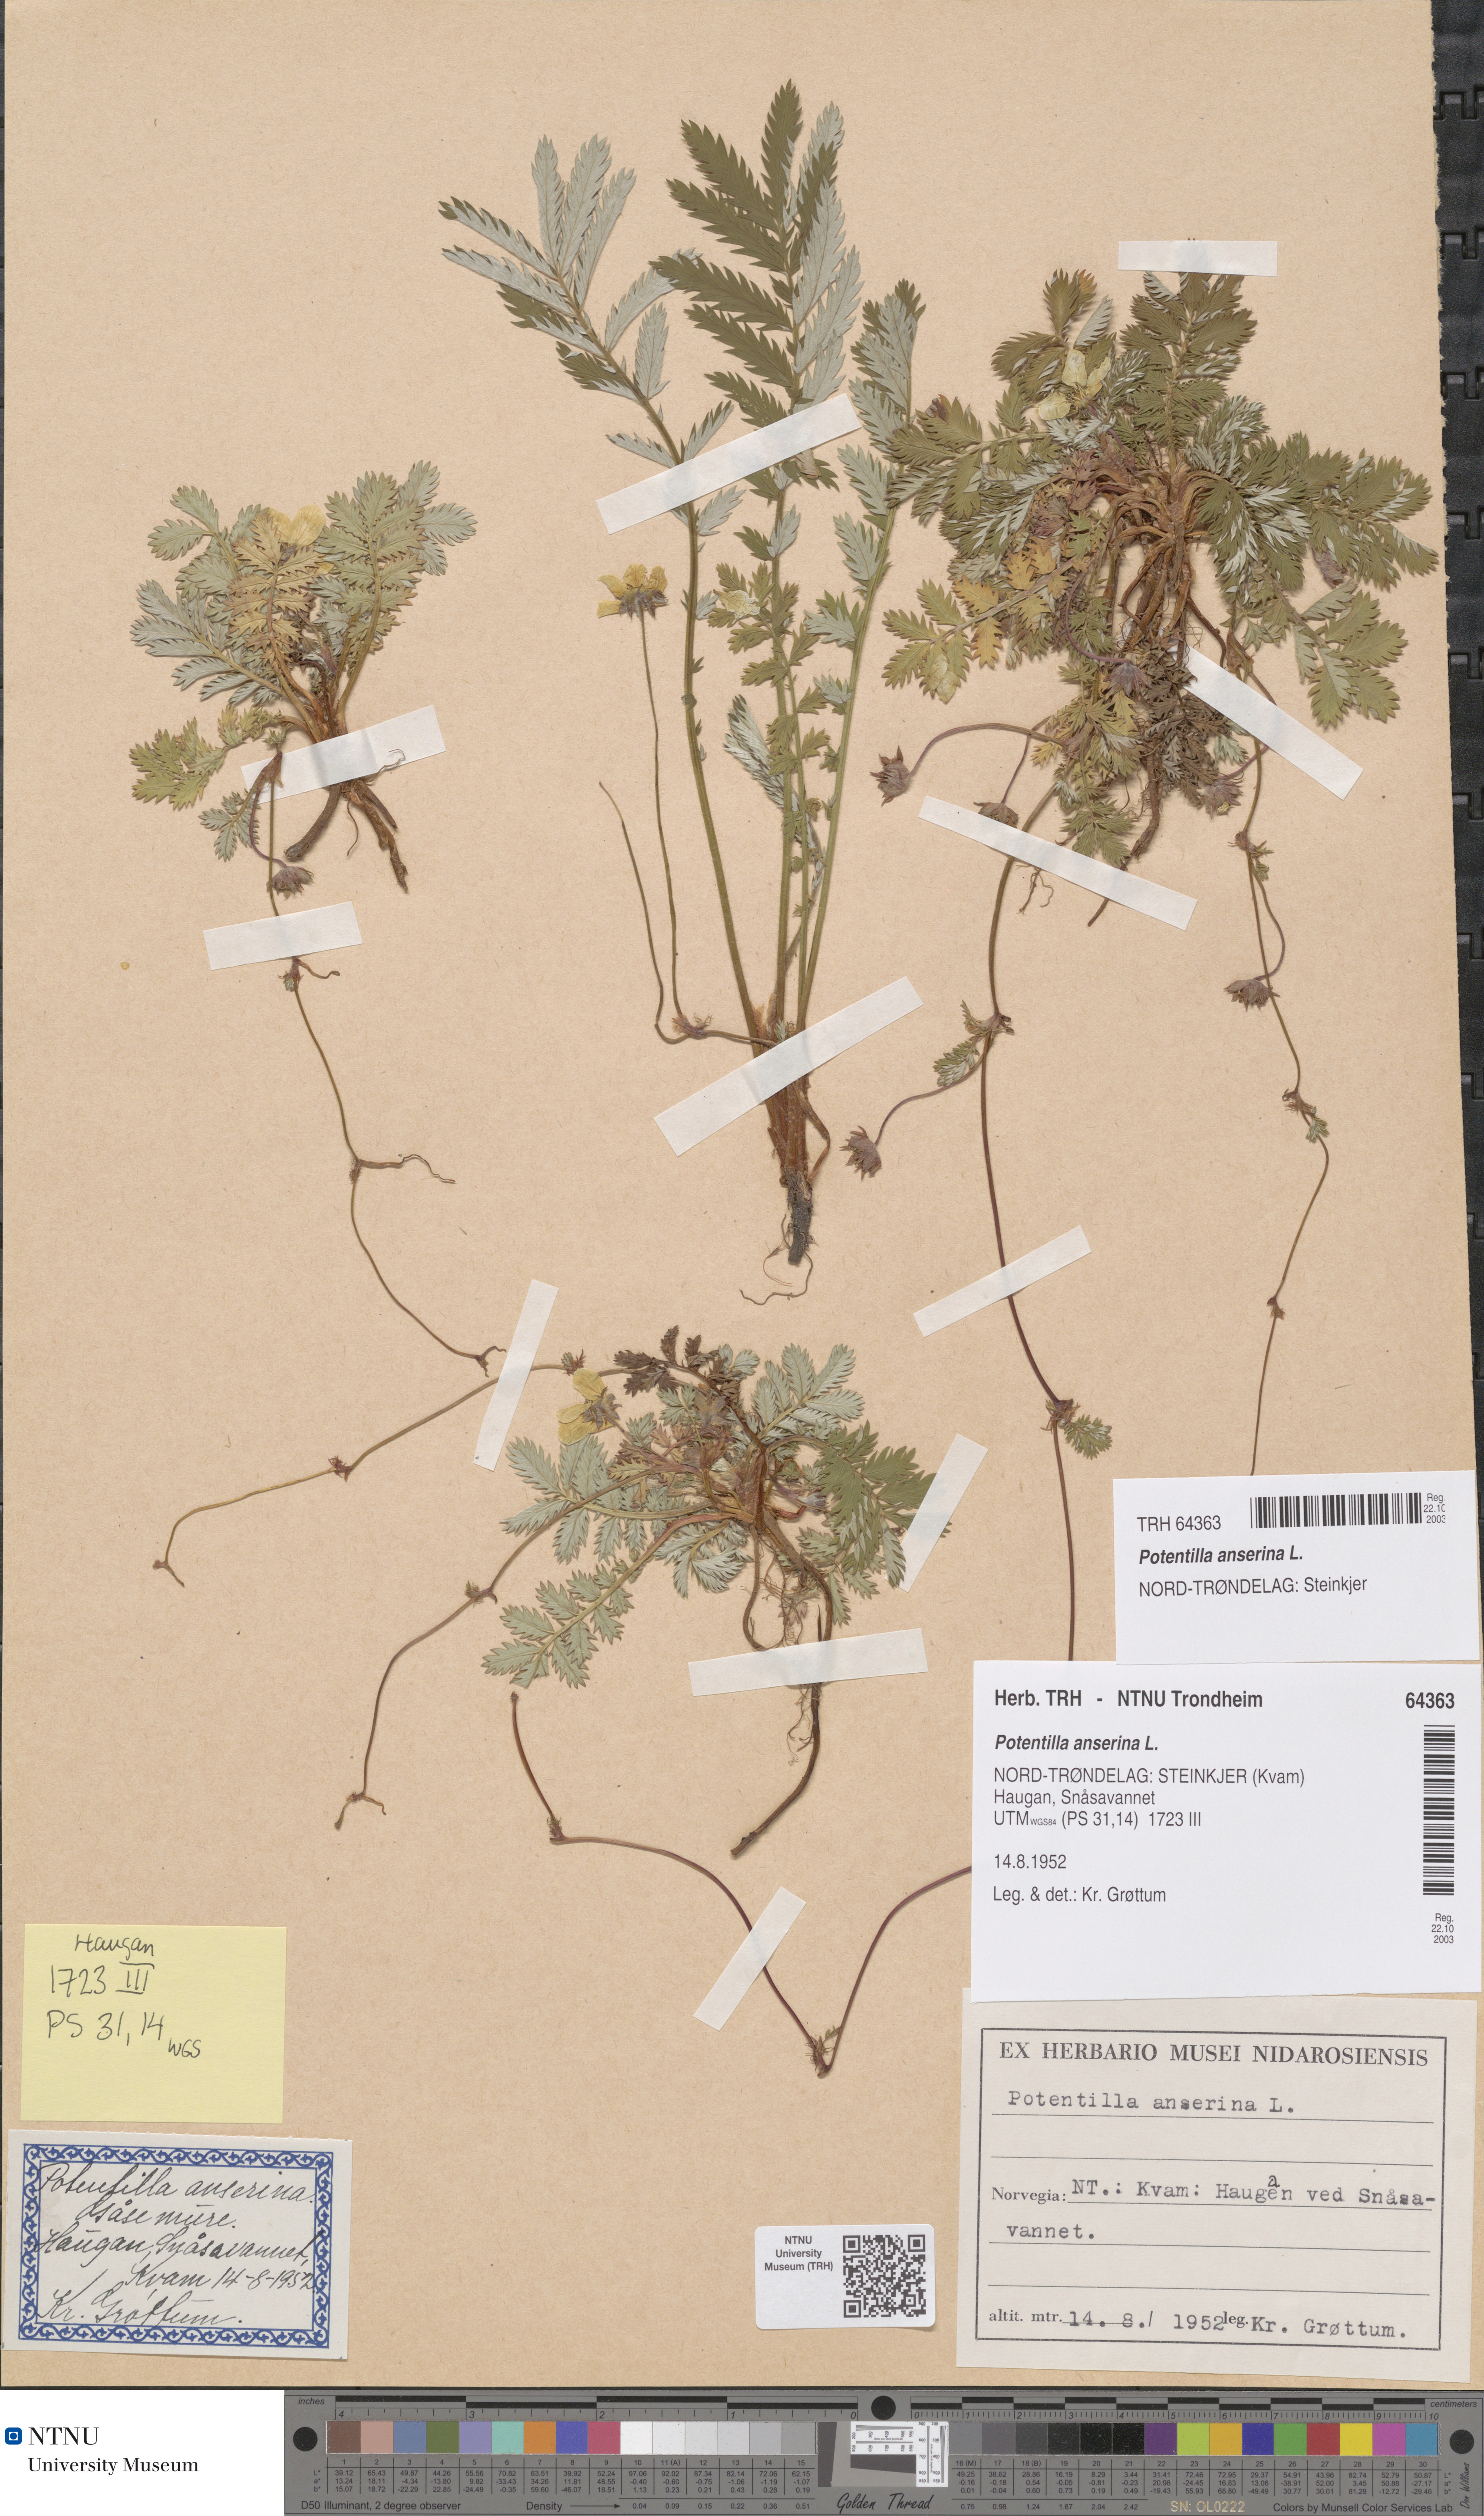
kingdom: Plantae
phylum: Tracheophyta
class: Magnoliopsida
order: Rosales
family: Rosaceae
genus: Argentina
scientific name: Argentina anserina
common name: Common silverweed
